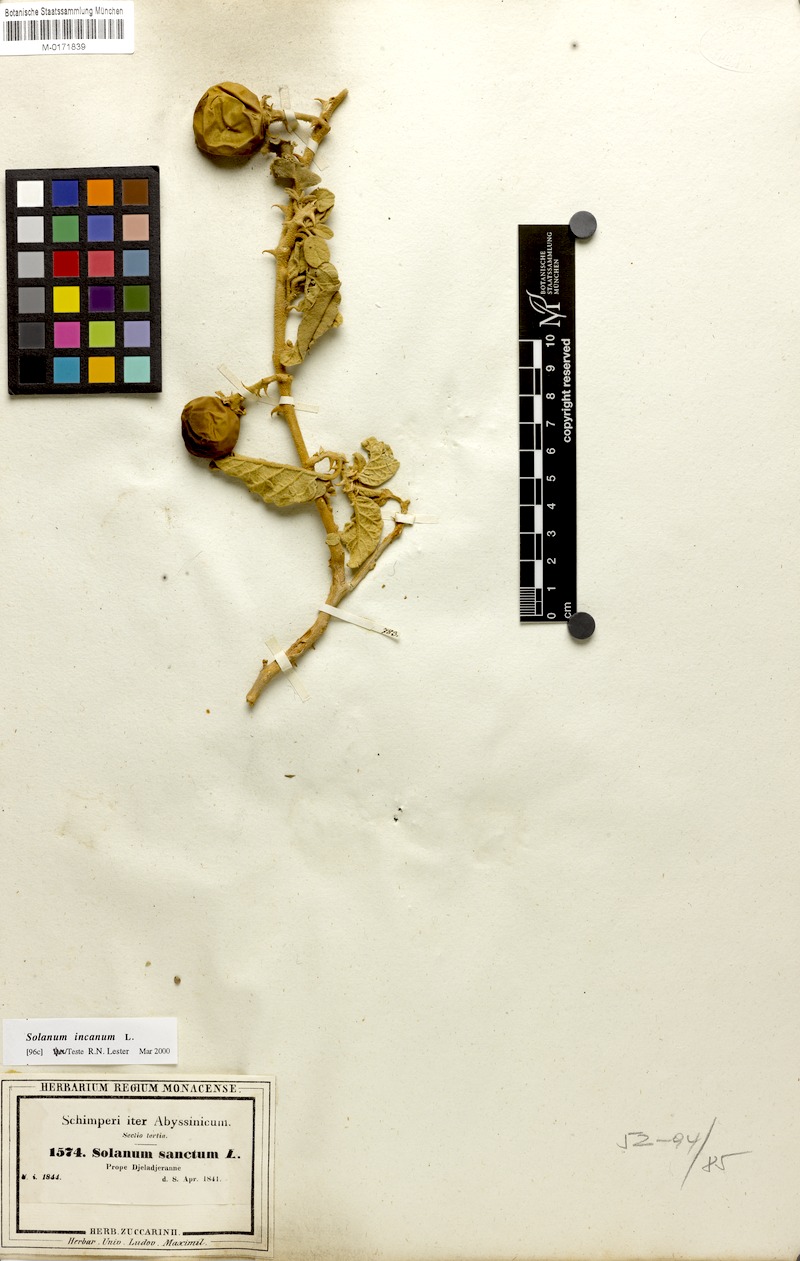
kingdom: Plantae
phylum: Tracheophyta
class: Magnoliopsida
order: Solanales
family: Solanaceae
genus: Solanum
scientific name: Solanum incanum
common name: Bitter apple
